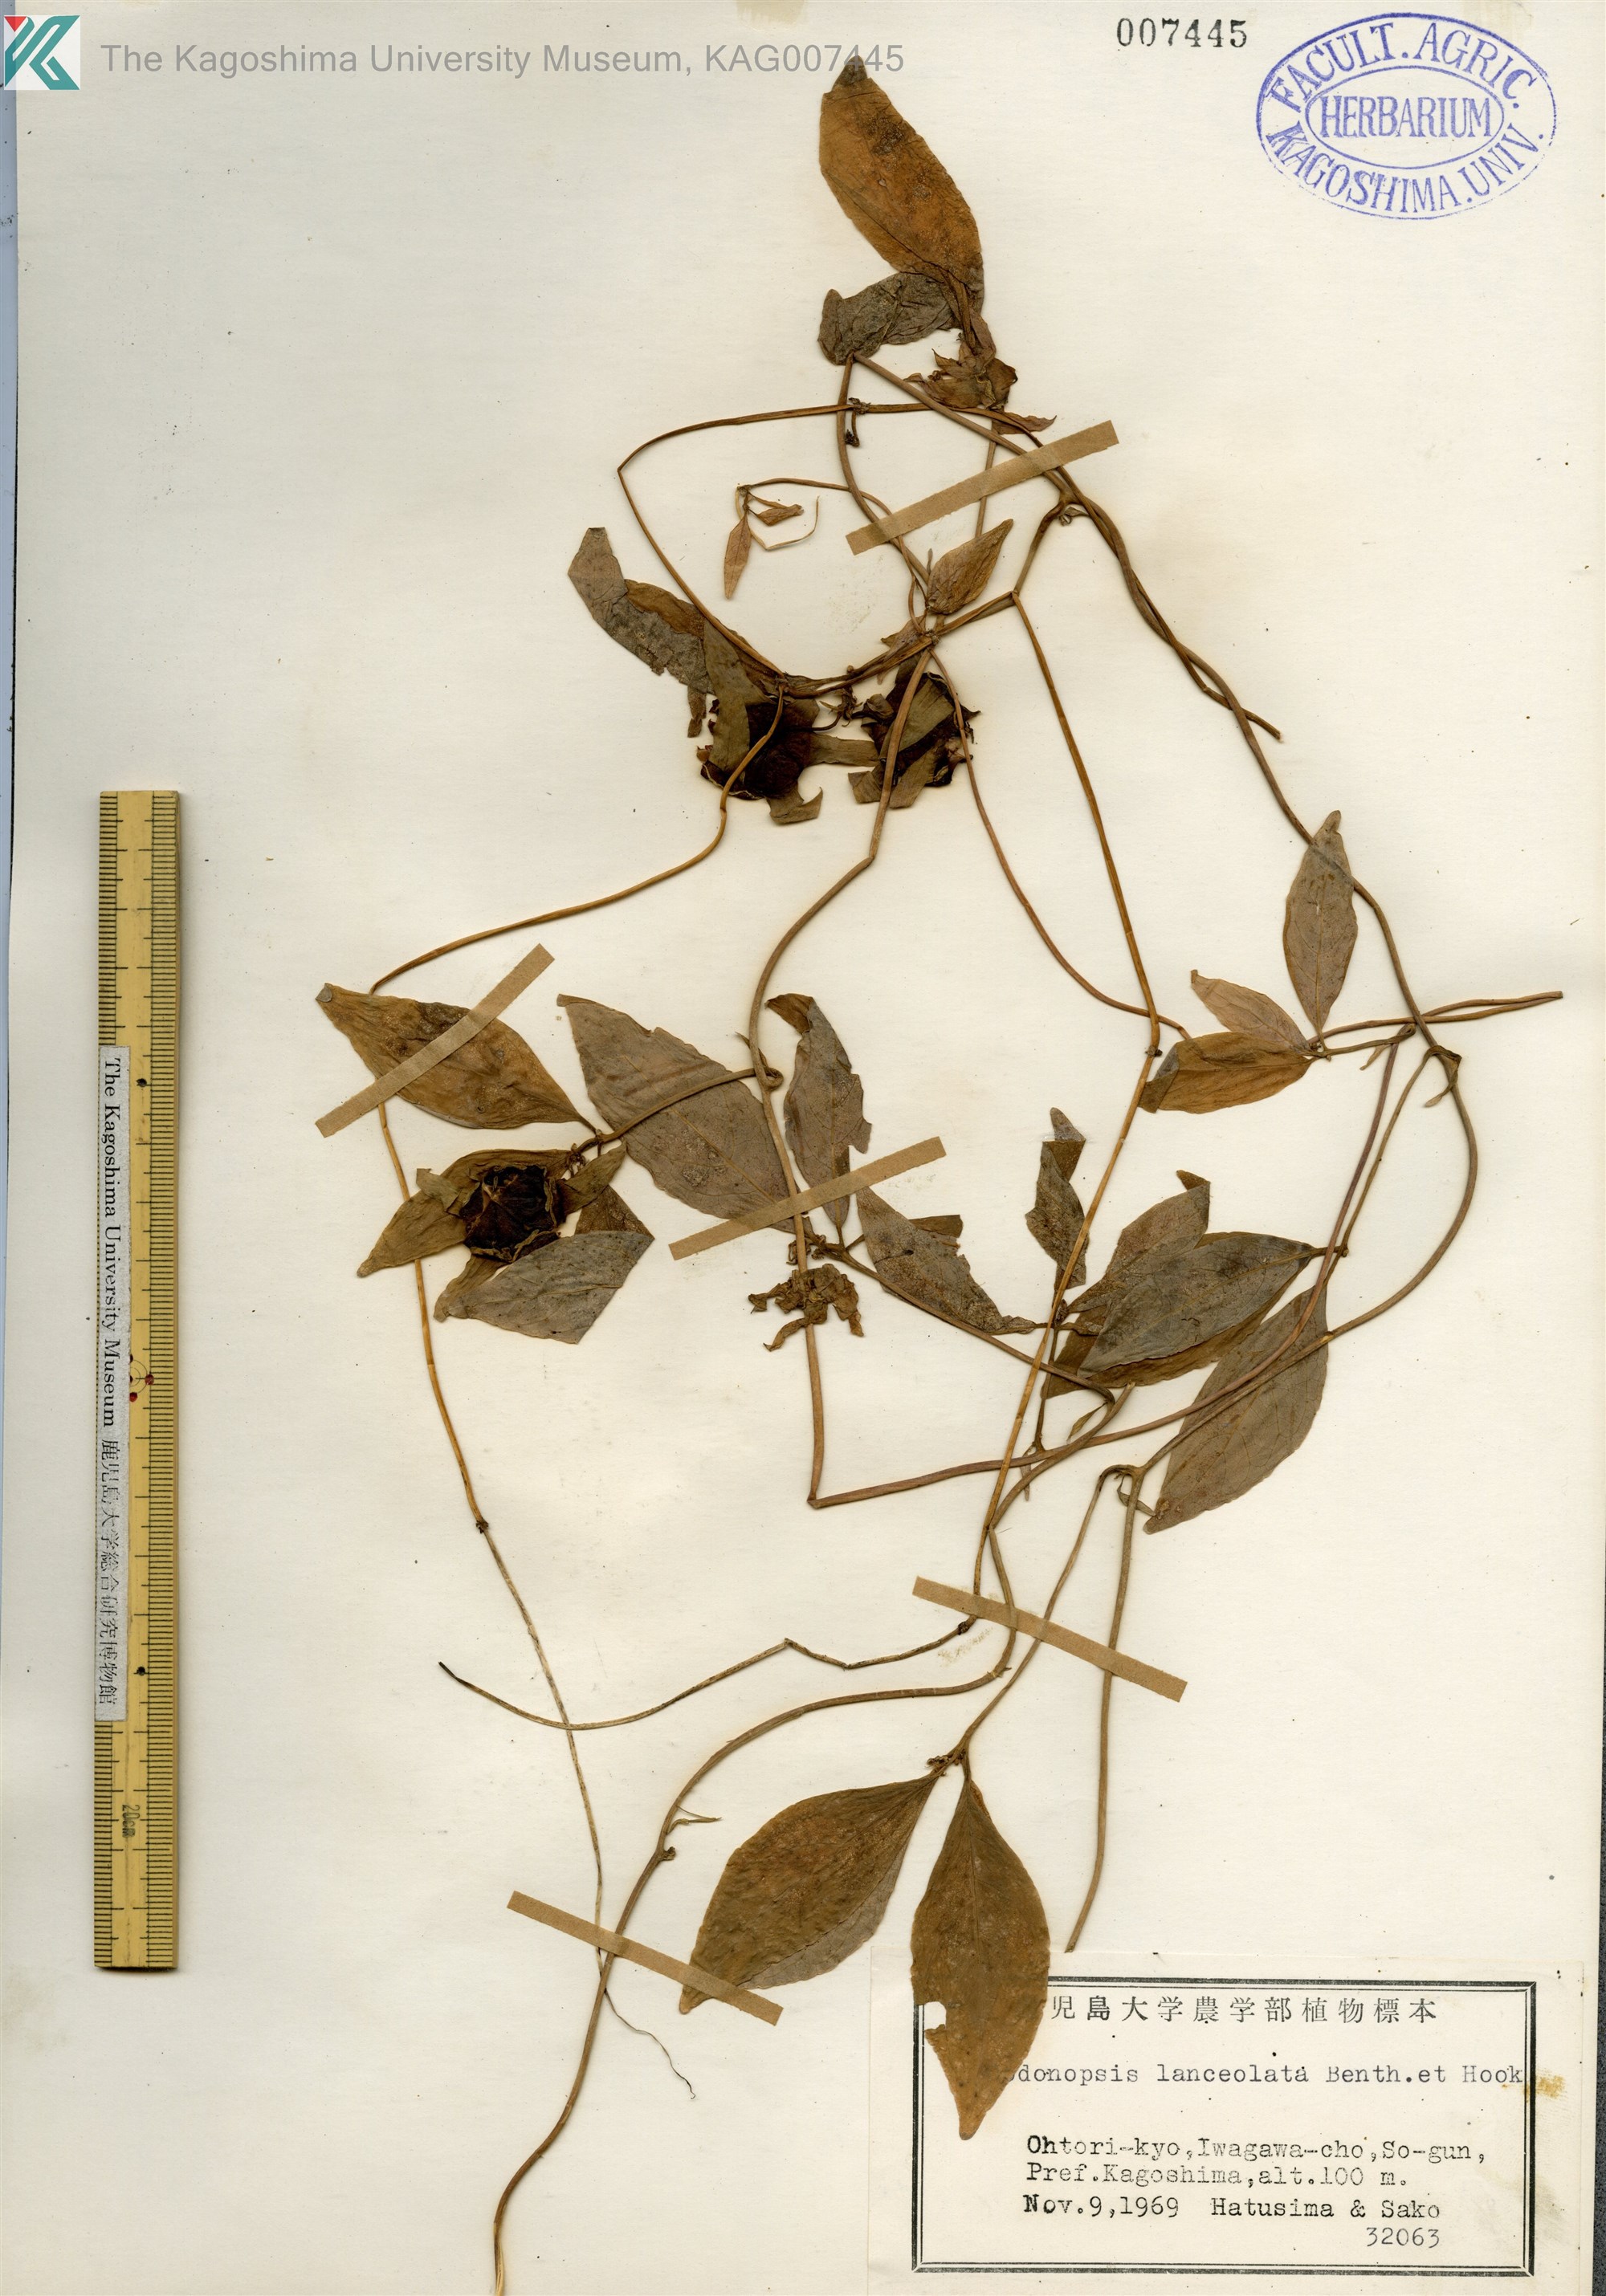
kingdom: Plantae
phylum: Tracheophyta
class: Magnoliopsida
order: Asterales
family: Campanulaceae
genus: Codonopsis
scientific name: Codonopsis lanceolata
